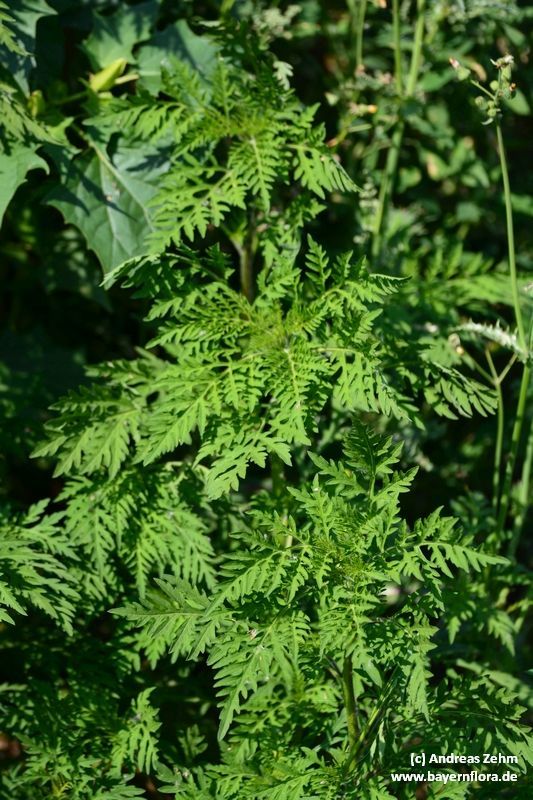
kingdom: Plantae
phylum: Tracheophyta
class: Magnoliopsida
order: Asterales
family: Asteraceae
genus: Ambrosia
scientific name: Ambrosia artemisiifolia
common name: Annual ragweed
